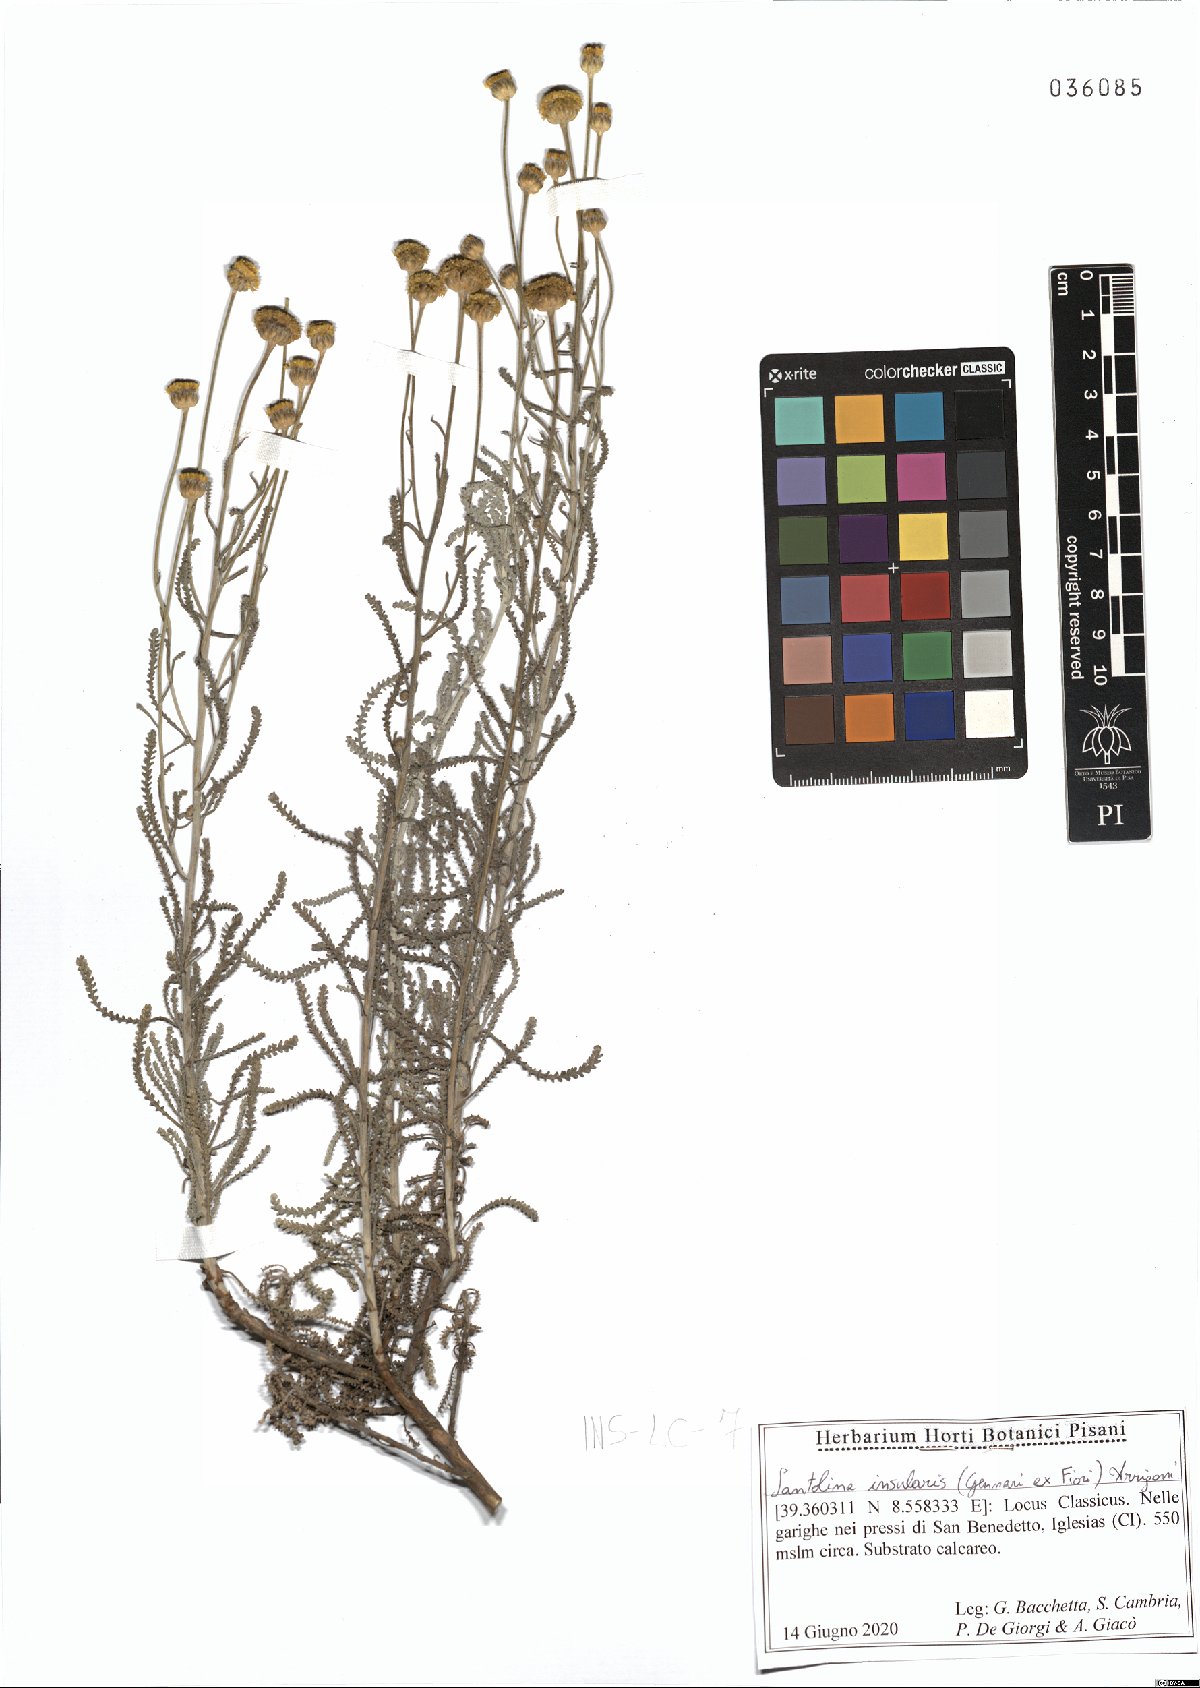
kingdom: Plantae
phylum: Tracheophyta
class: Magnoliopsida
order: Asterales
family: Asteraceae
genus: Santolina
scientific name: Santolina insularis
